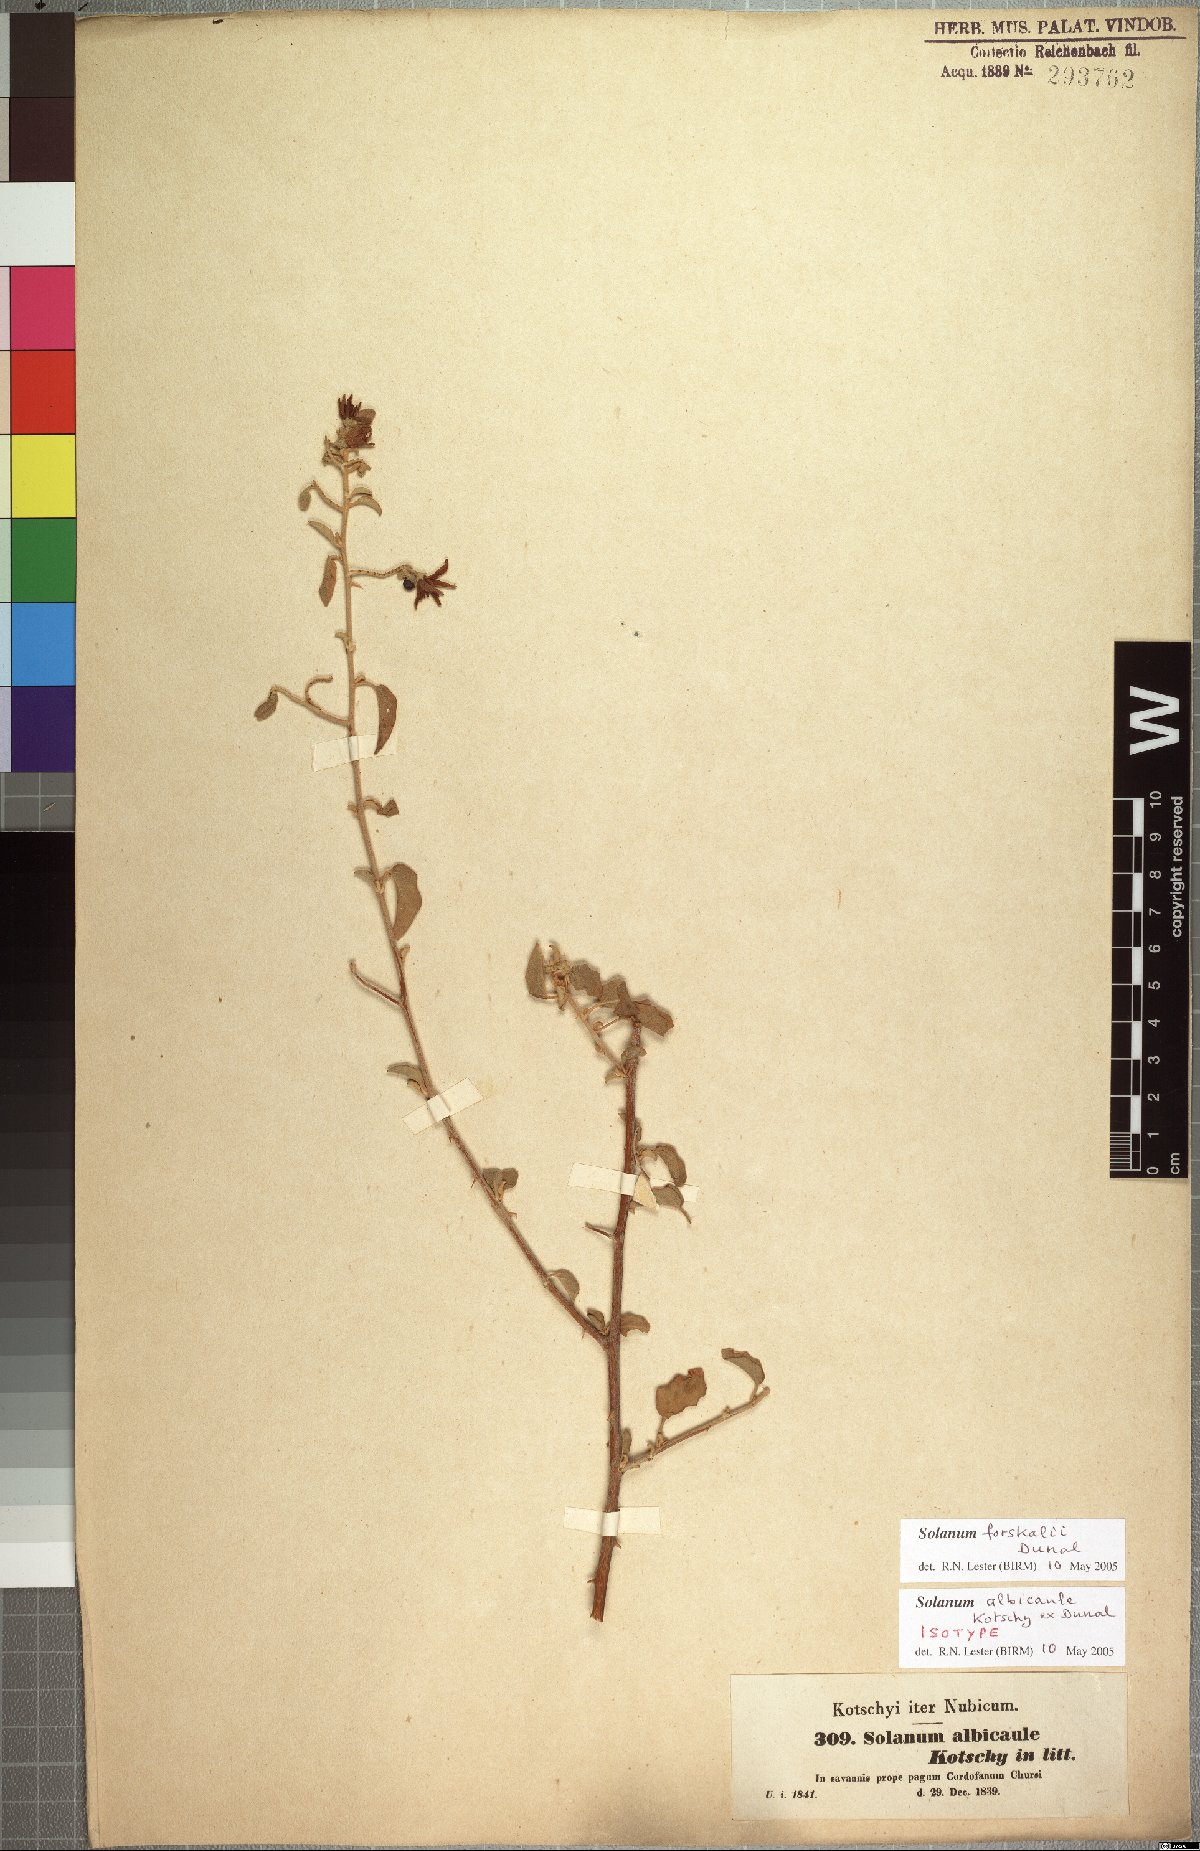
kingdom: Plantae
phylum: Tracheophyta
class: Magnoliopsida
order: Solanales
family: Solanaceae
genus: Solanum
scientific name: Solanum forsskaolii
